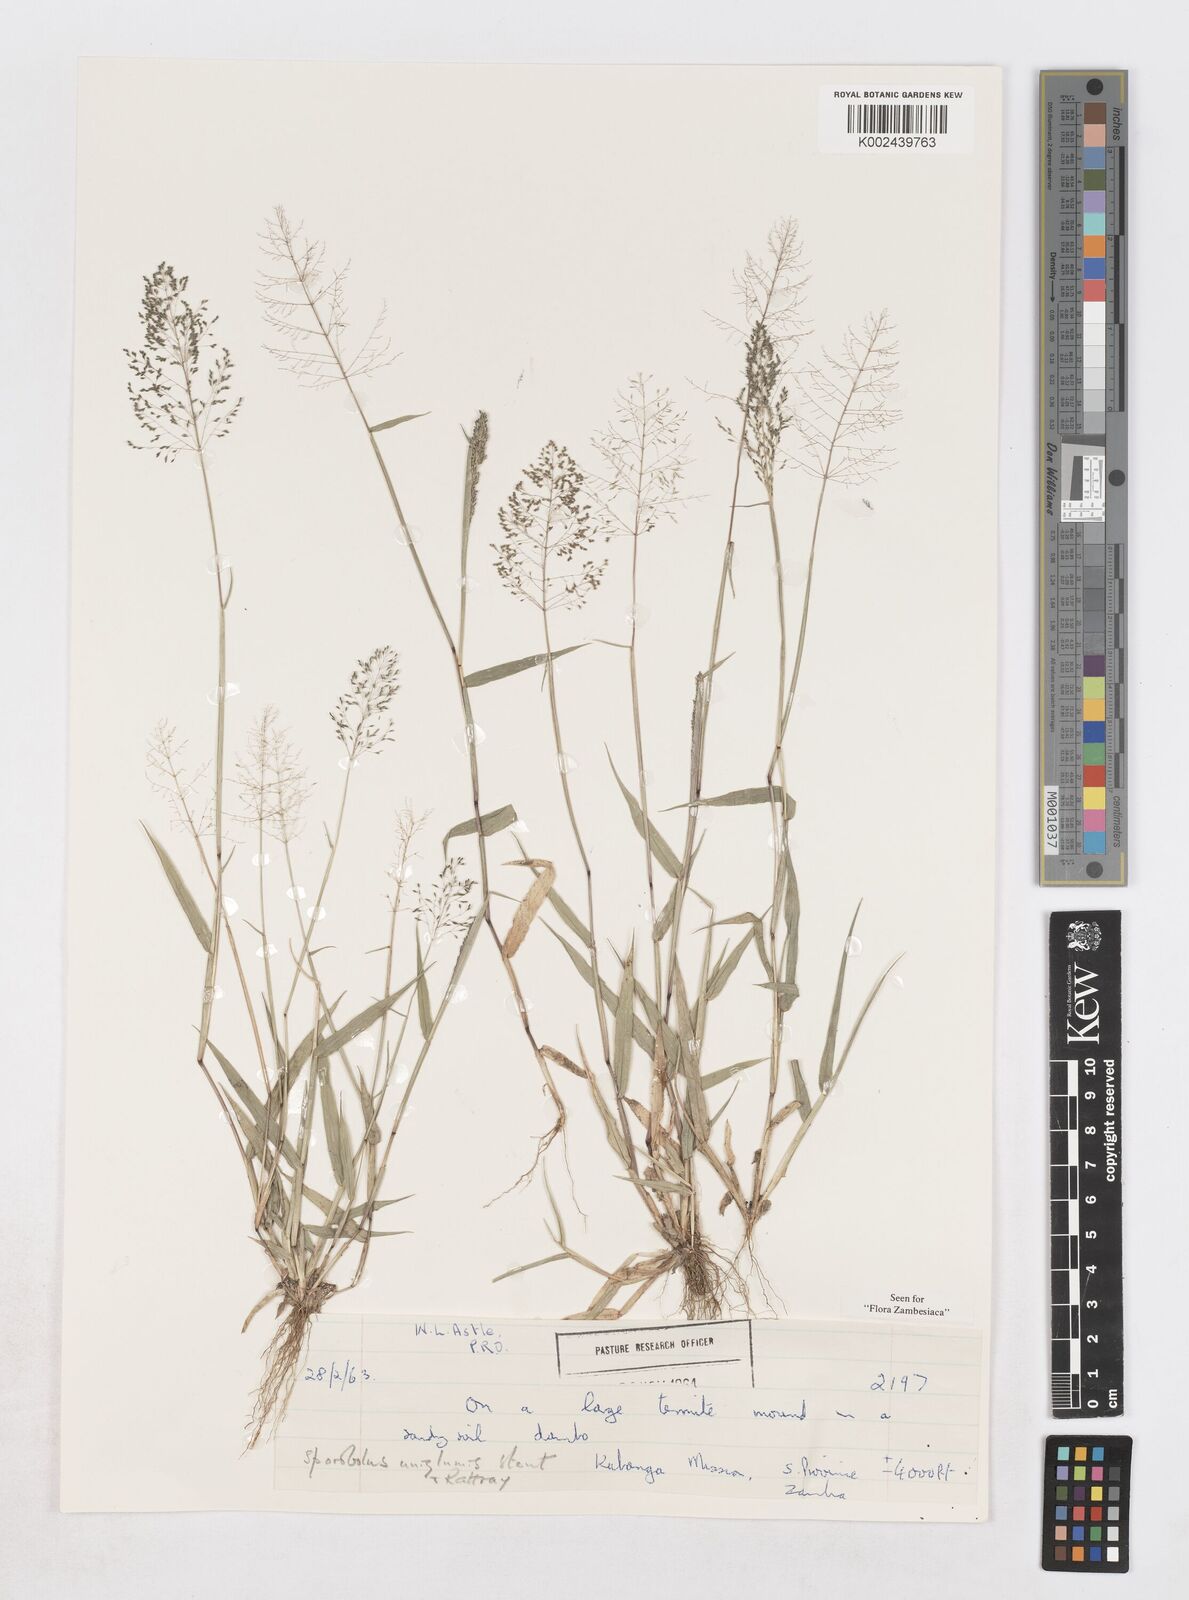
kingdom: Plantae
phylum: Tracheophyta
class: Liliopsida
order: Poales
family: Poaceae
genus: Sporobolus
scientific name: Sporobolus uniglumis
